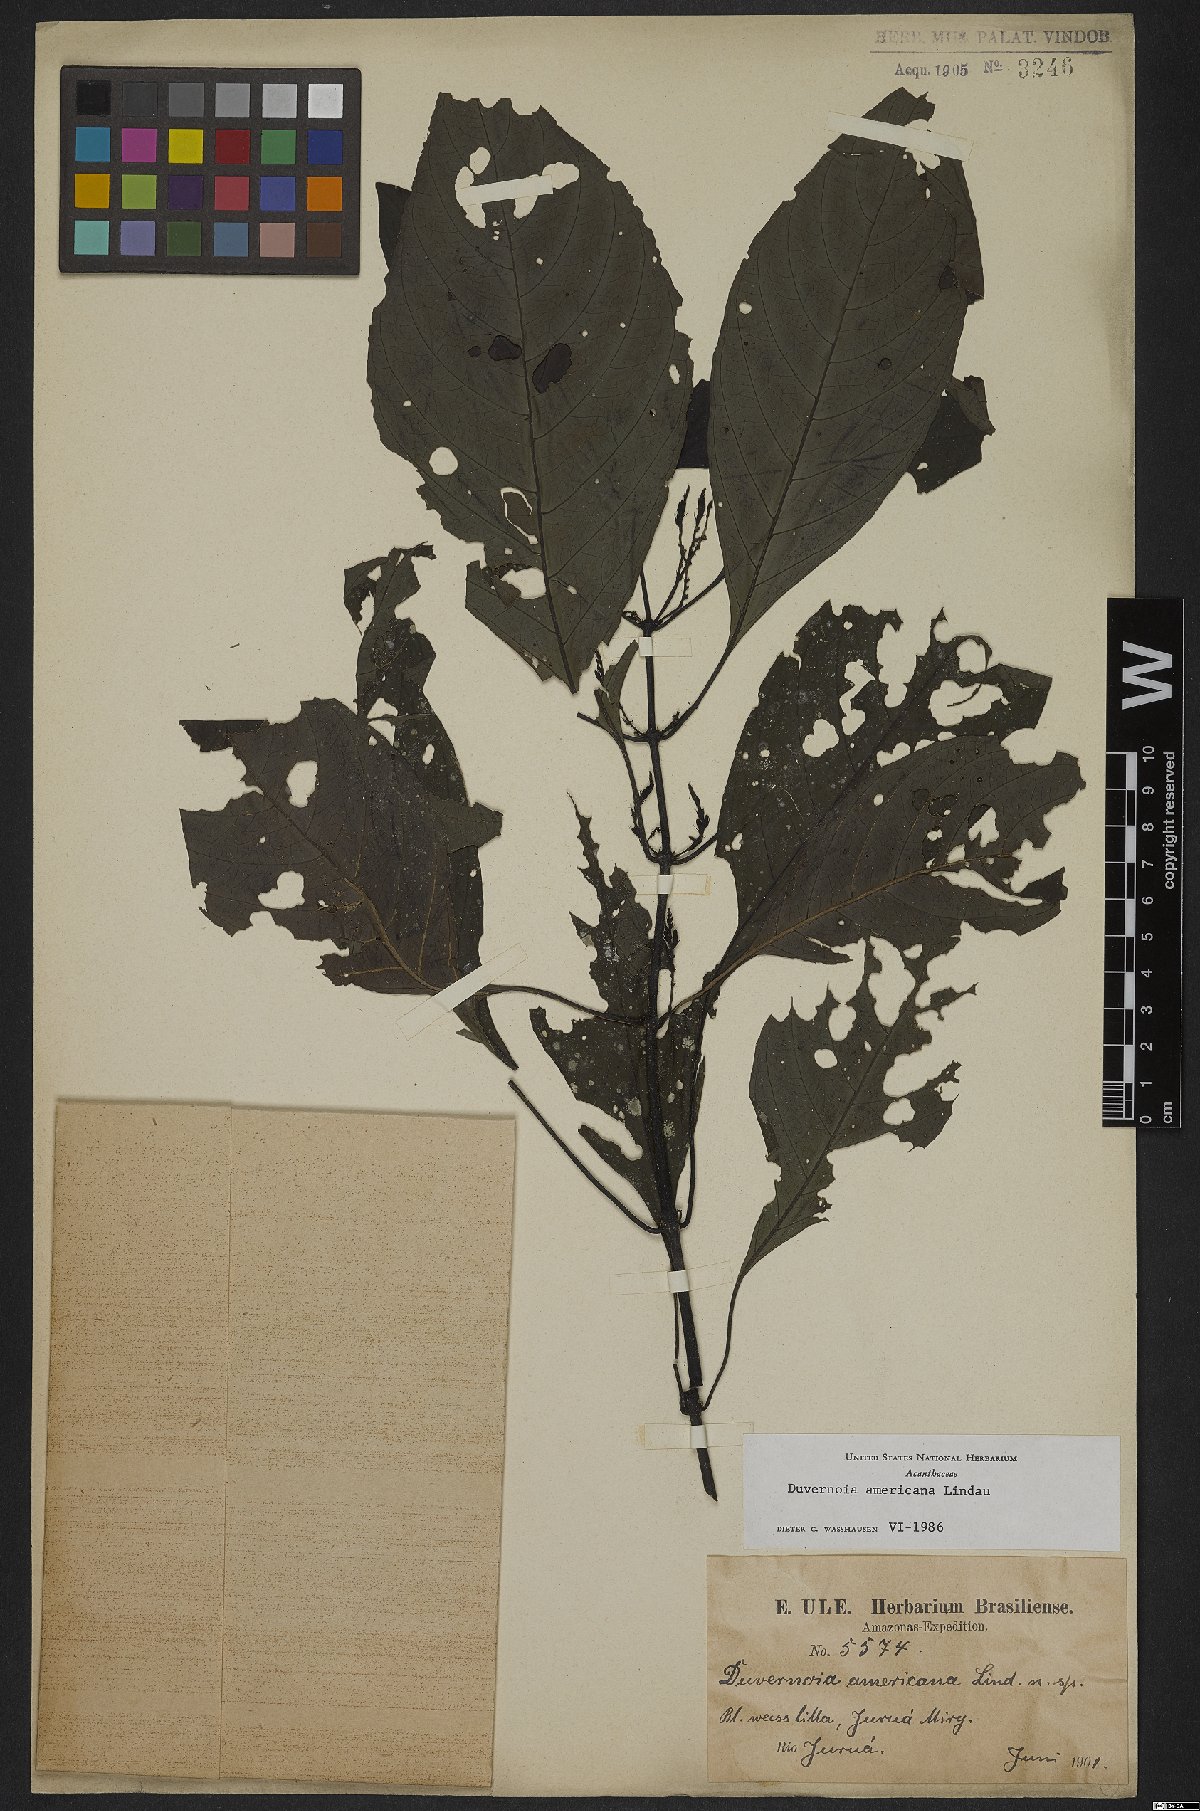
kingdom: Plantae
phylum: Tracheophyta
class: Magnoliopsida
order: Lamiales
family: Acanthaceae
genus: Dianthera
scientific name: Dianthera americana
